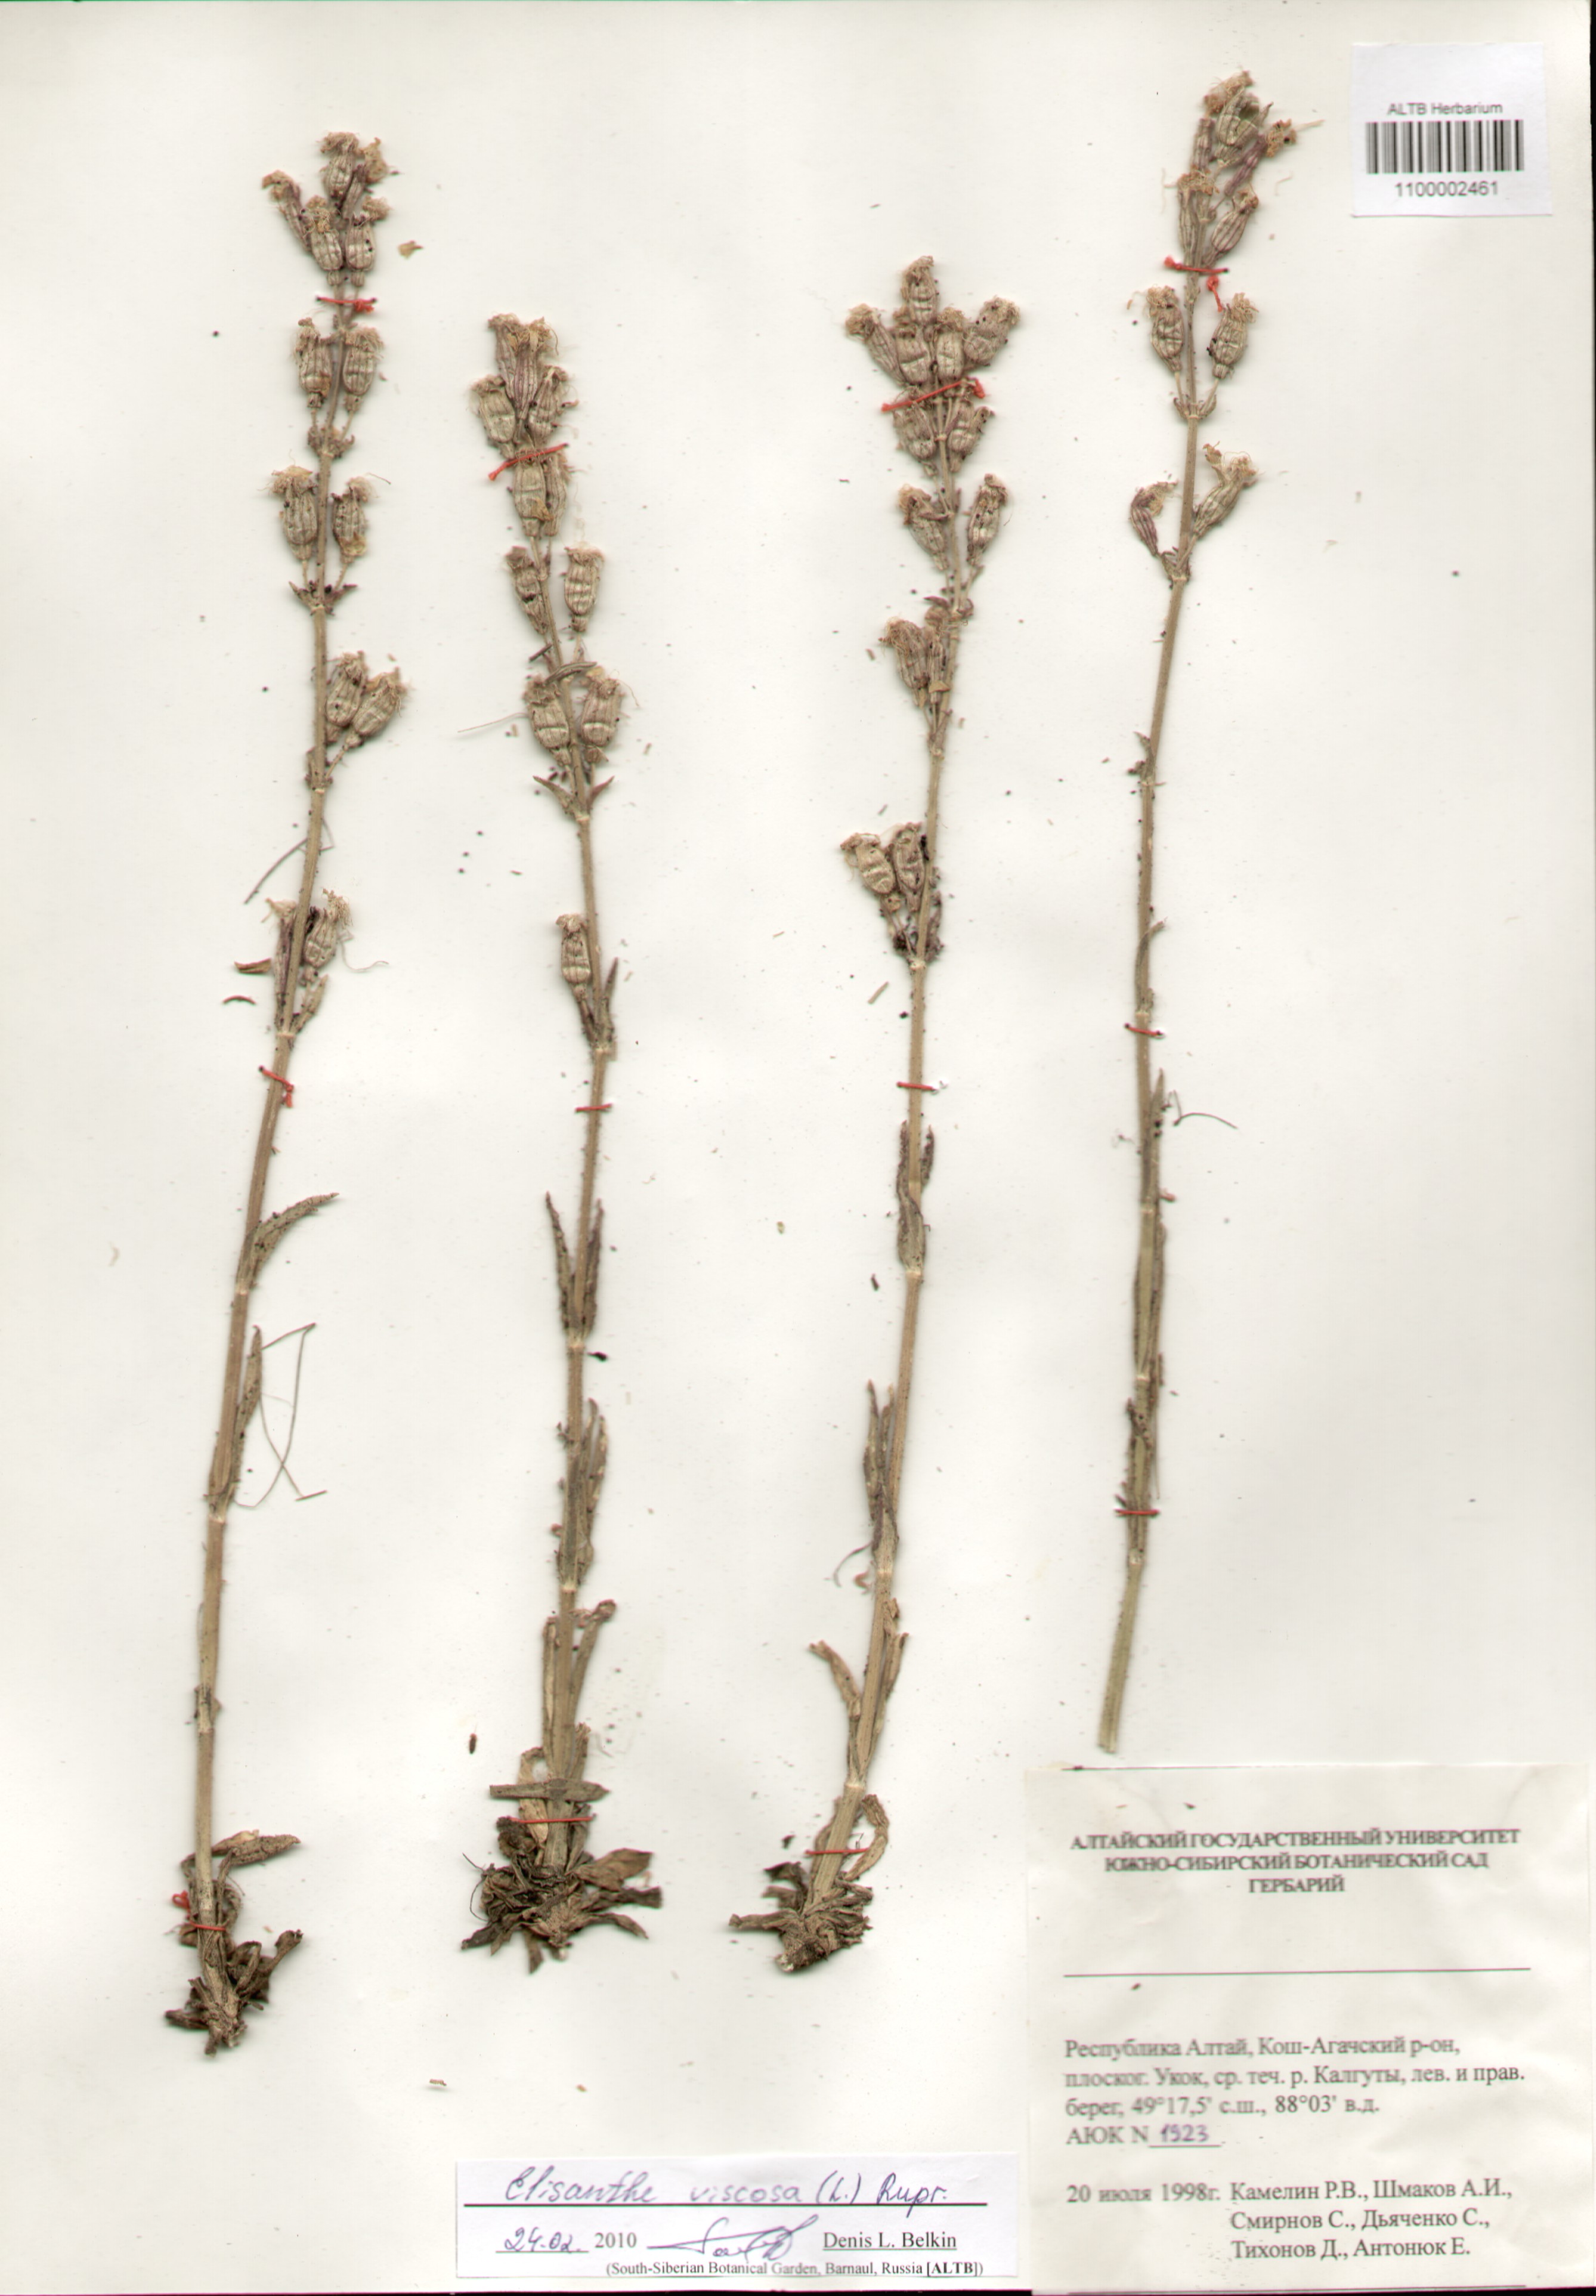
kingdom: Plantae
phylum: Tracheophyta
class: Magnoliopsida
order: Caryophyllales
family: Caryophyllaceae
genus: Silene
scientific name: Silene viscosa
